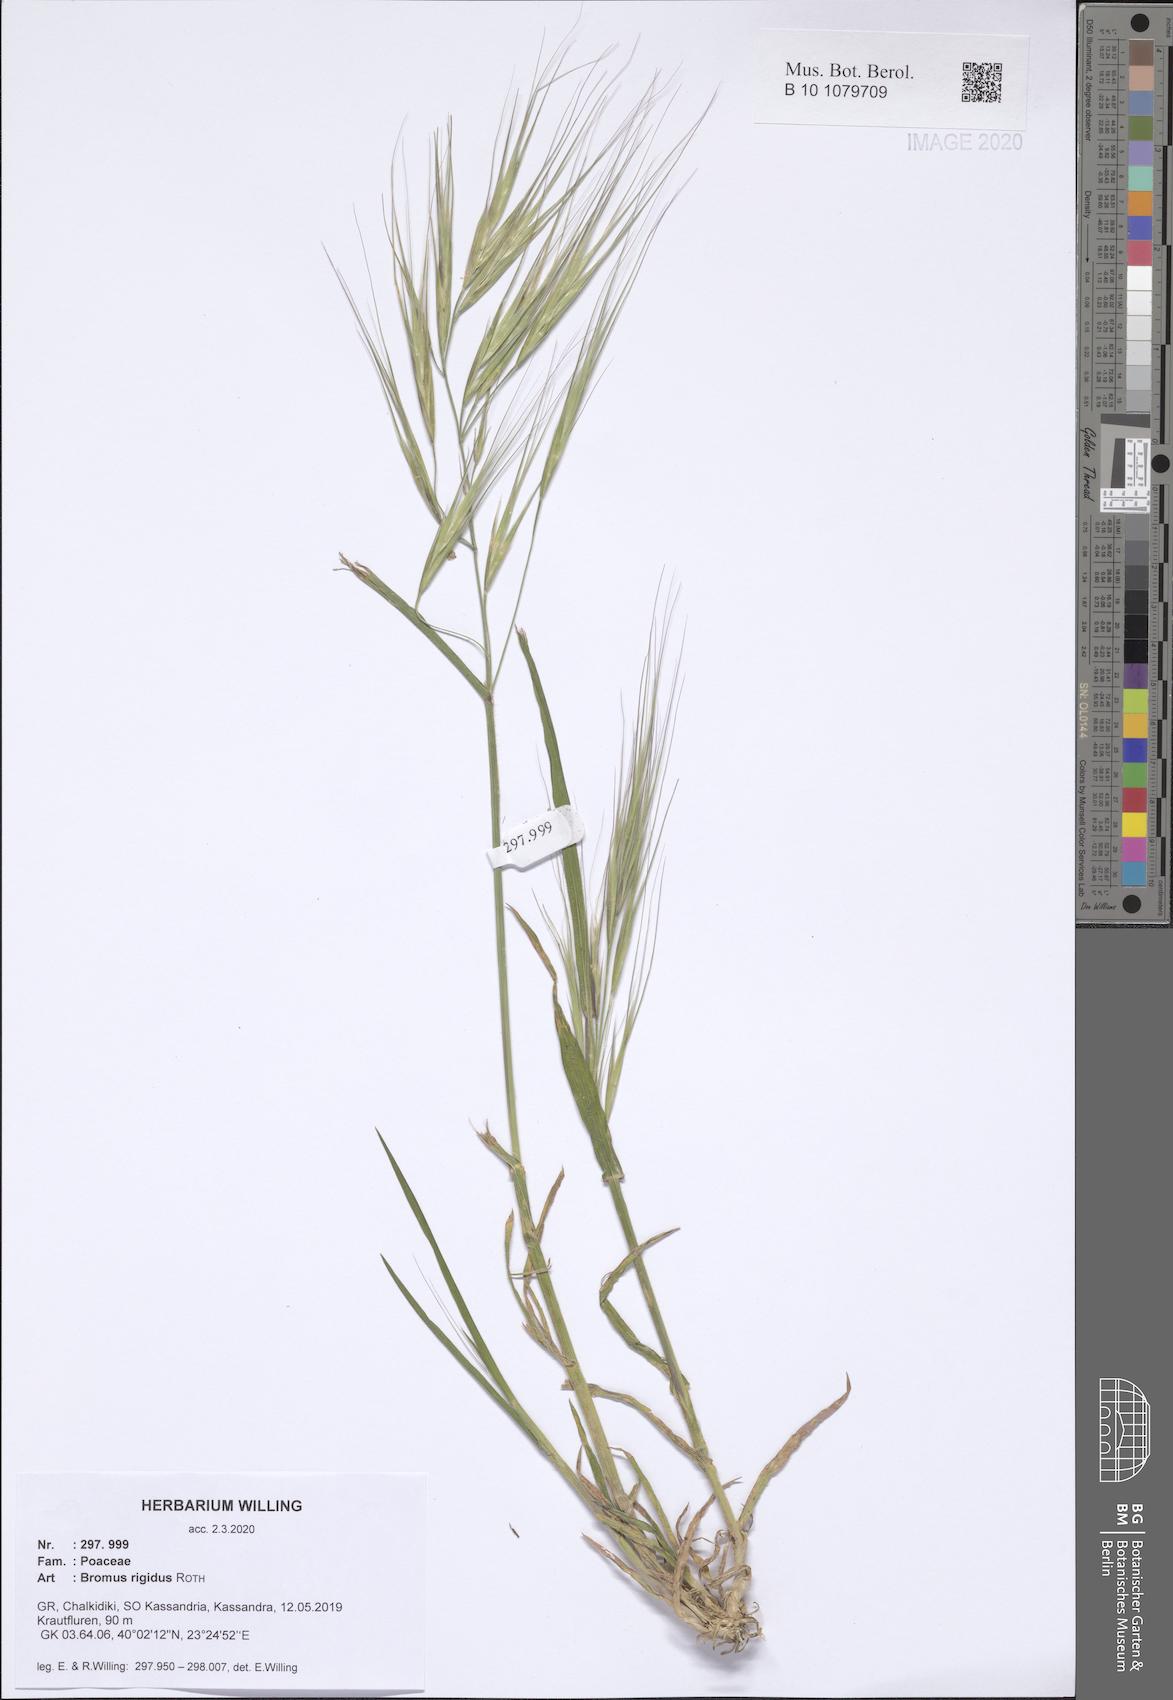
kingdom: Plantae
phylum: Tracheophyta
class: Liliopsida
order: Poales
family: Poaceae
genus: Bromus
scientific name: Bromus rigidus
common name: Ripgut brome
